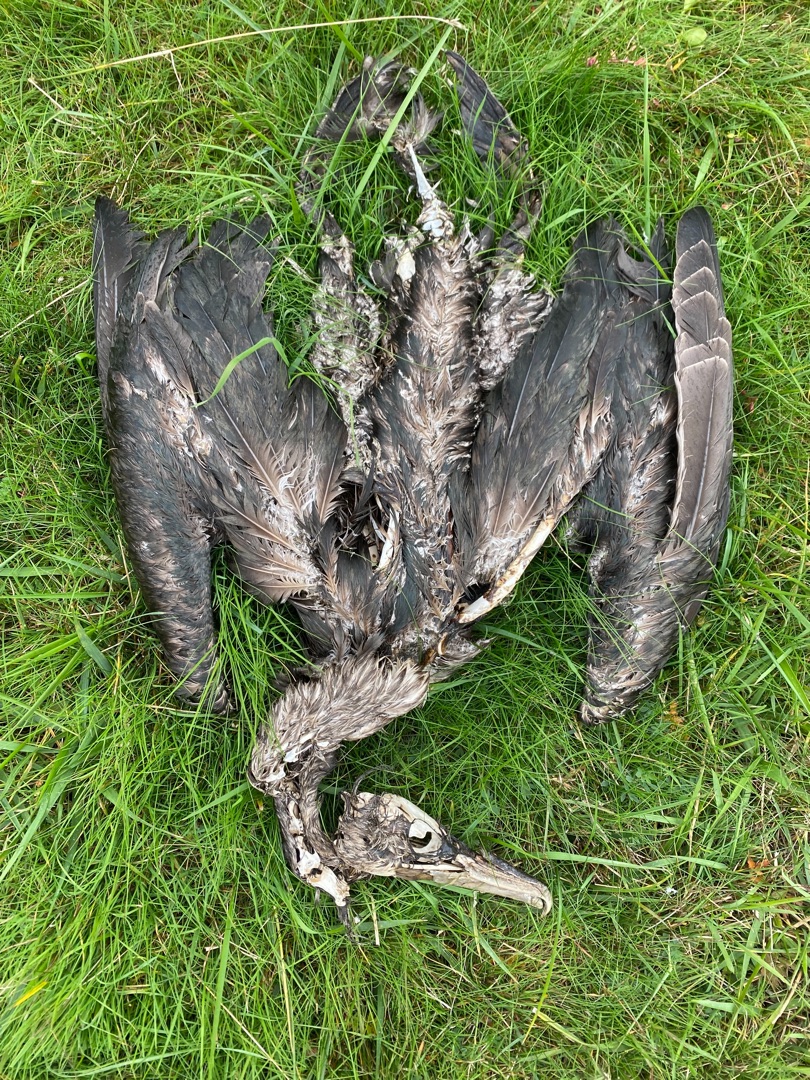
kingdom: Animalia
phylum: Chordata
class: Aves
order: Suliformes
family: Phalacrocoracidae
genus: Phalacrocorax
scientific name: Phalacrocorax carbo
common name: Skarv
